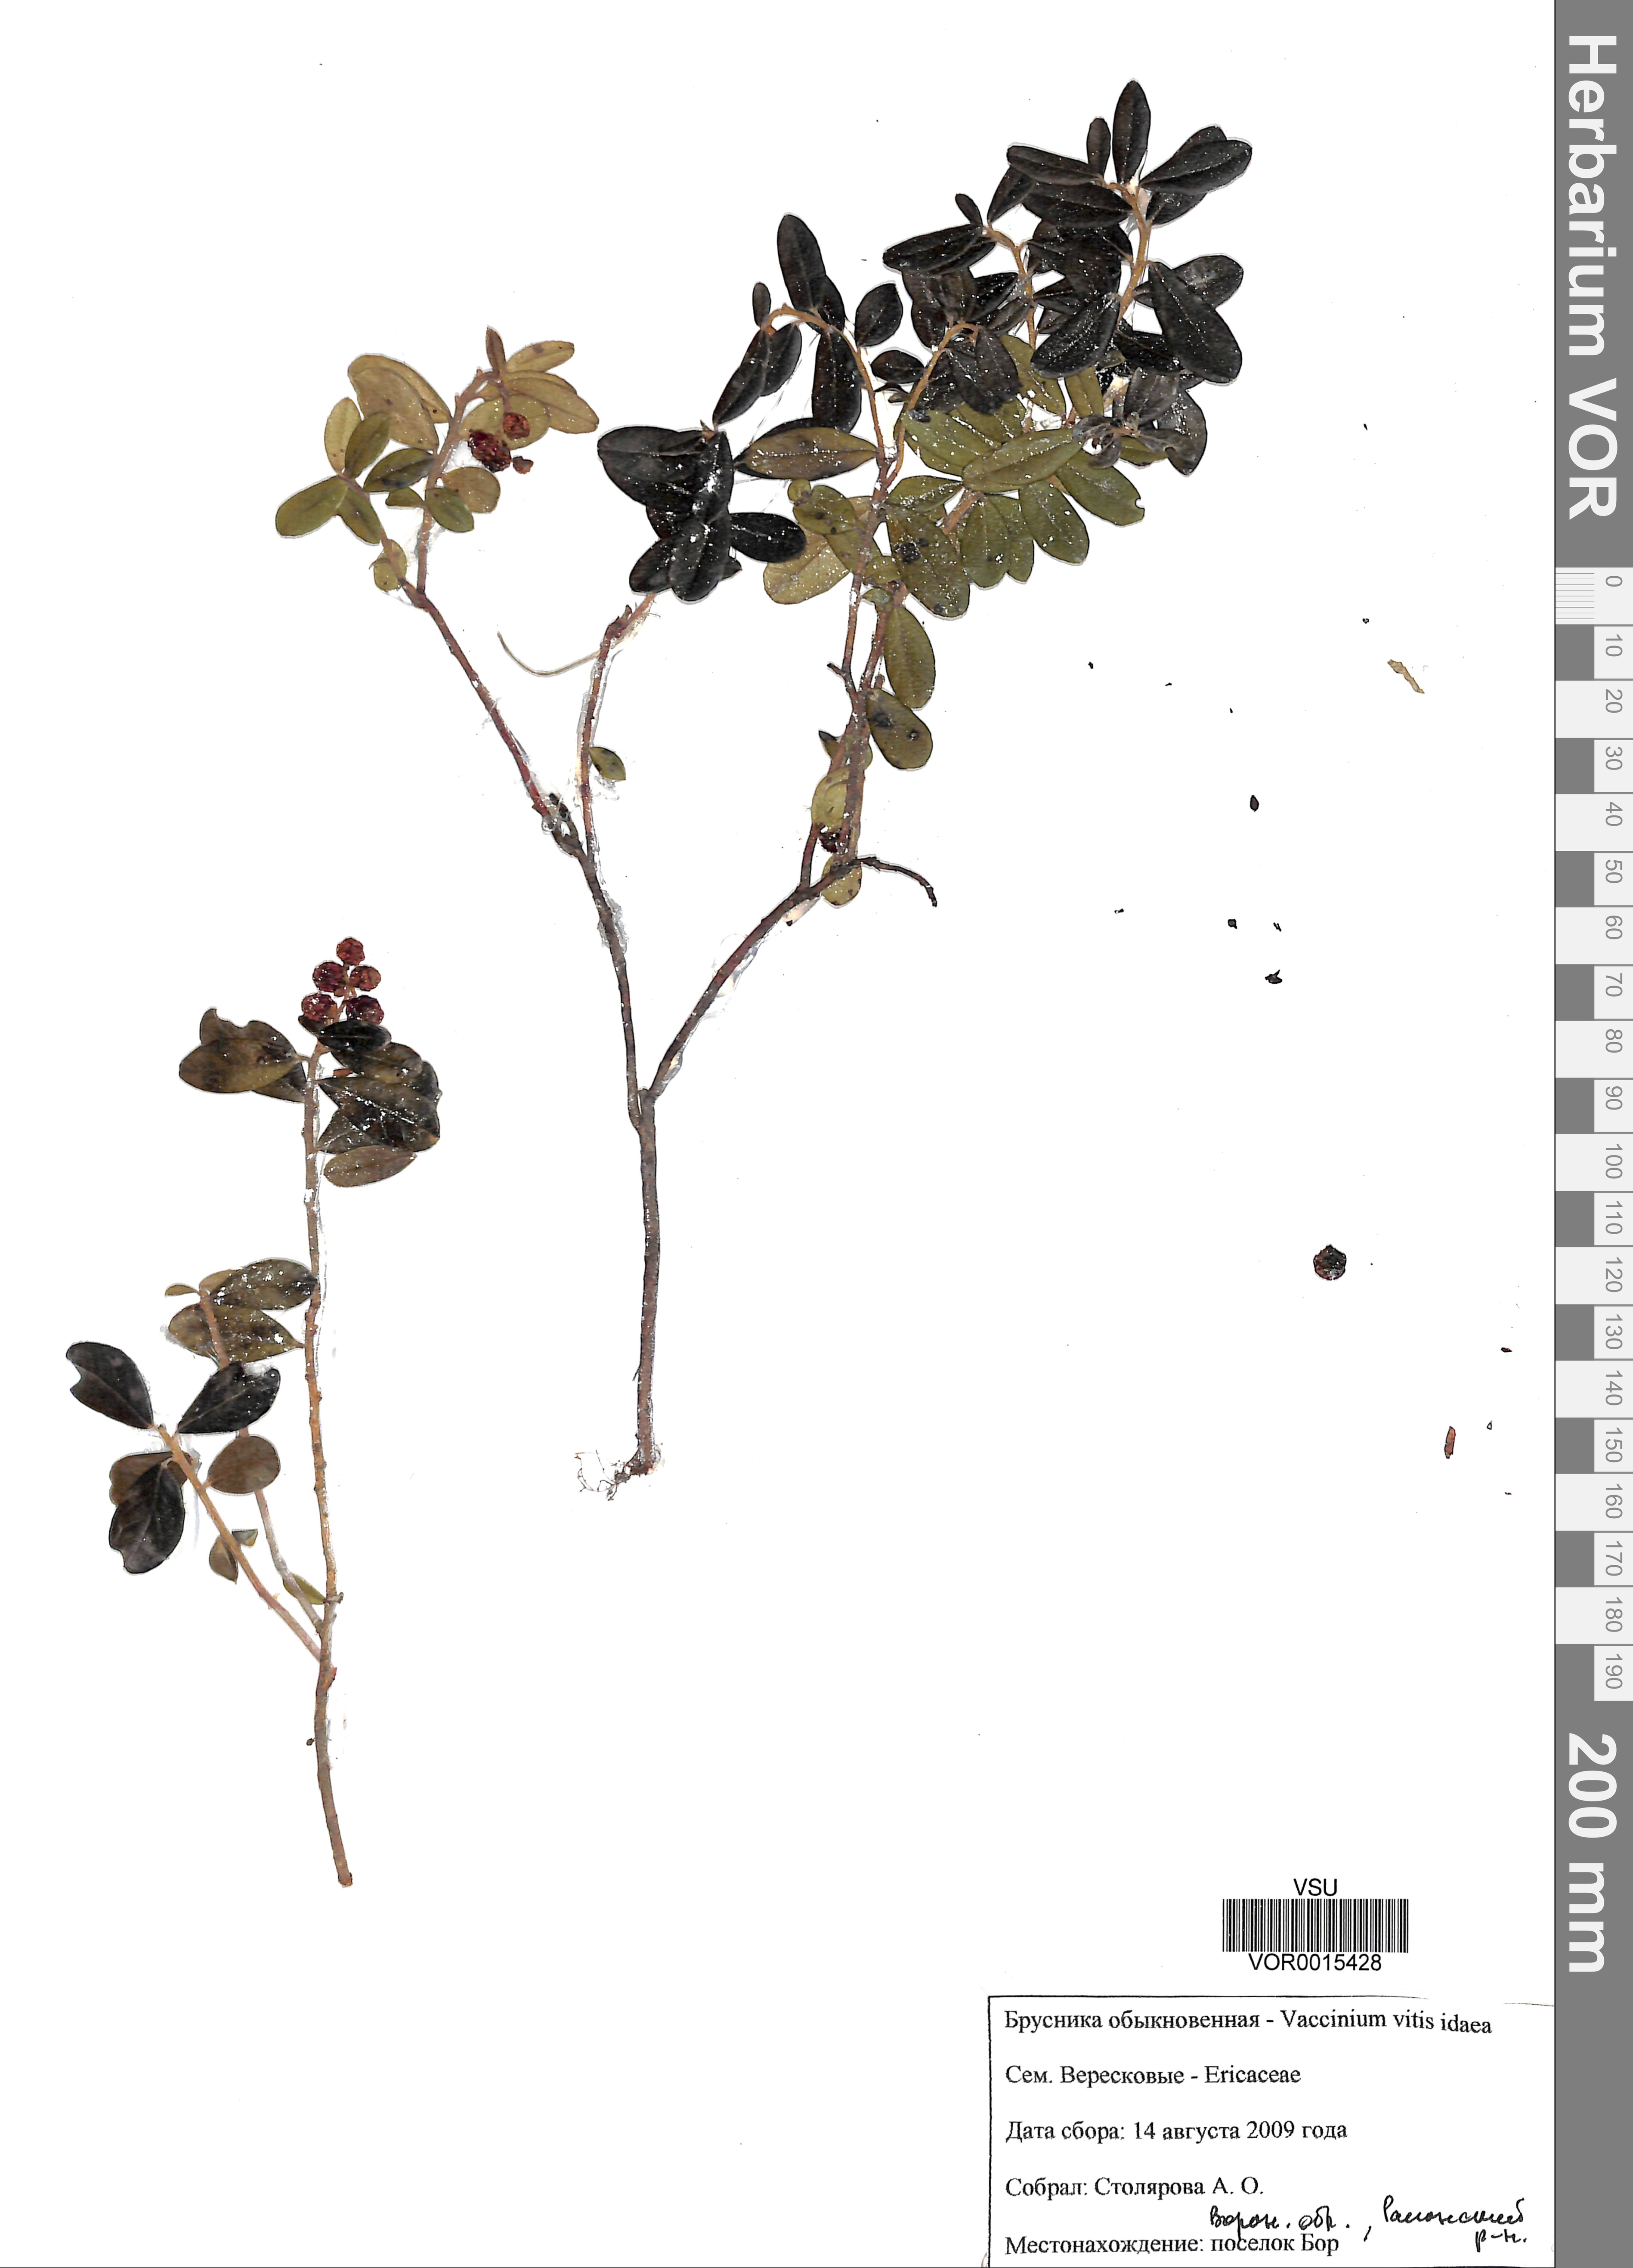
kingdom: Plantae
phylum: Tracheophyta
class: Magnoliopsida
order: Ericales
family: Ericaceae
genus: Vaccinium
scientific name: Vaccinium vitis-idaea
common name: Cowberry
